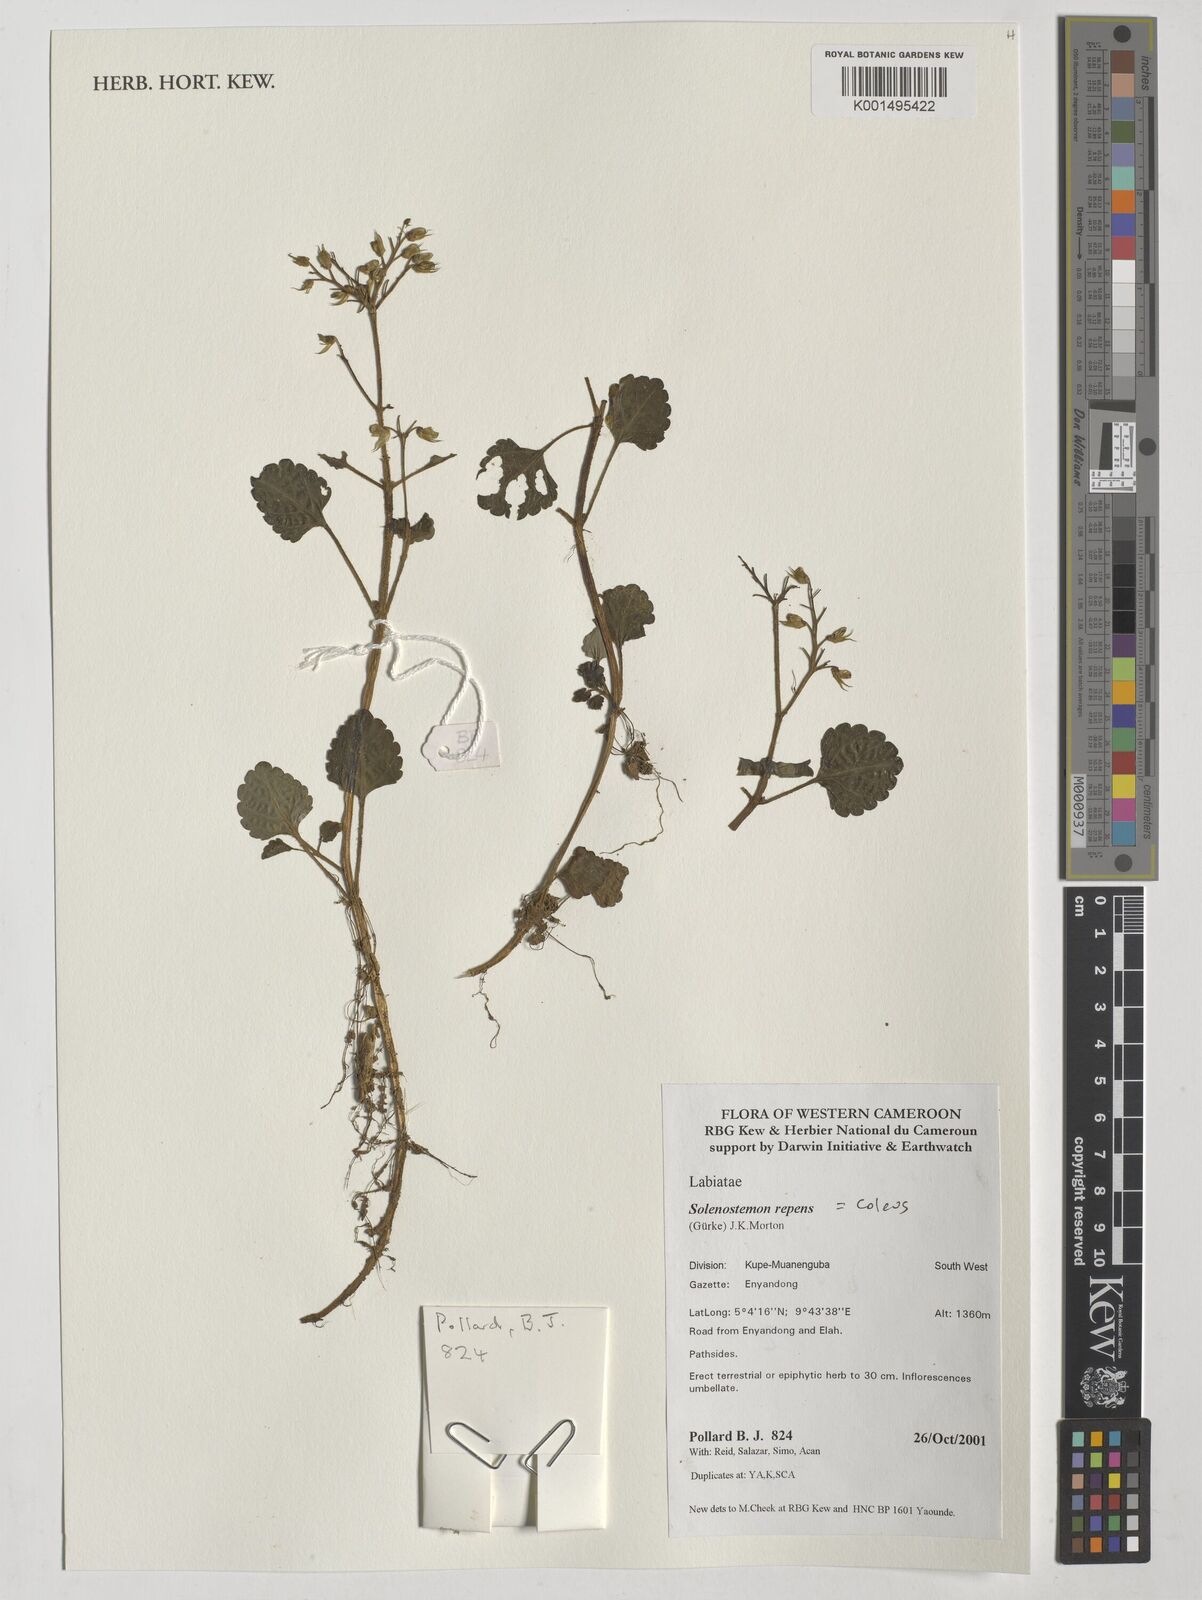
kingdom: Plantae
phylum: Tracheophyta
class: Magnoliopsida
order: Lamiales
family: Lamiaceae
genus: Coleus
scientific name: Coleus repens
